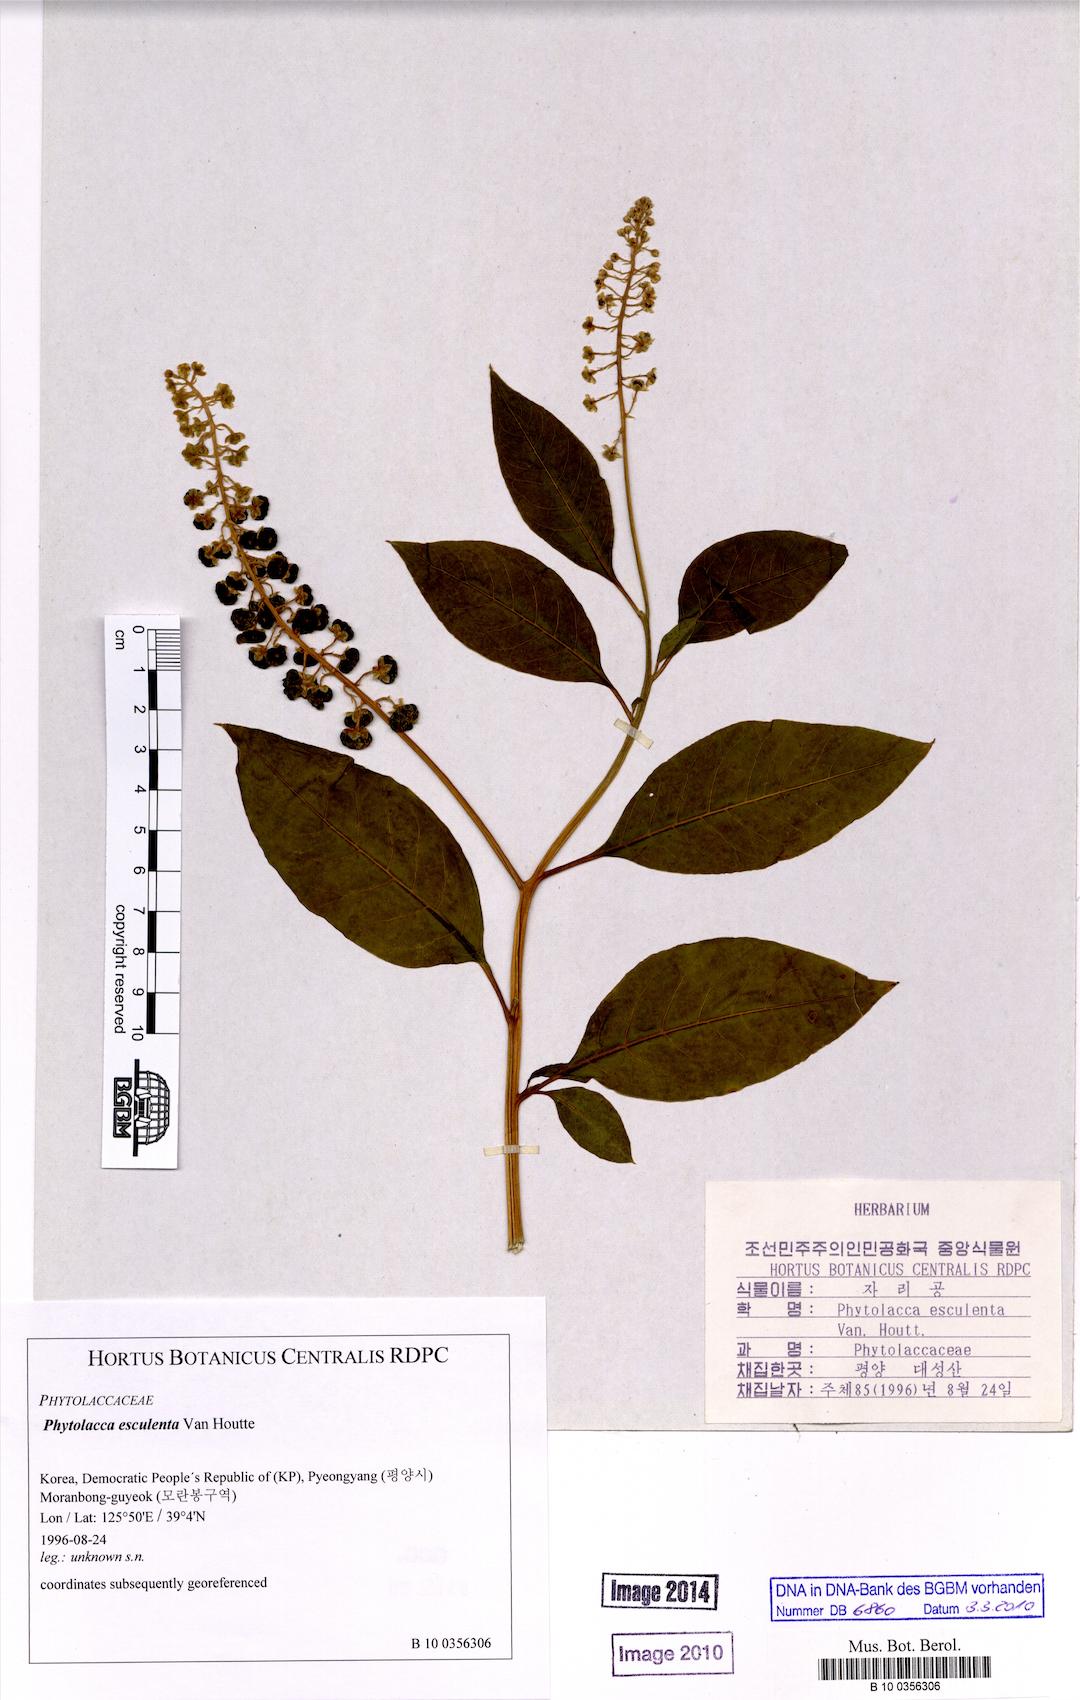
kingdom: Plantae
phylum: Tracheophyta
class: Magnoliopsida
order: Caryophyllales
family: Phytolaccaceae
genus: Phytolacca
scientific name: Phytolacca acinosa
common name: Indian pokeweed
